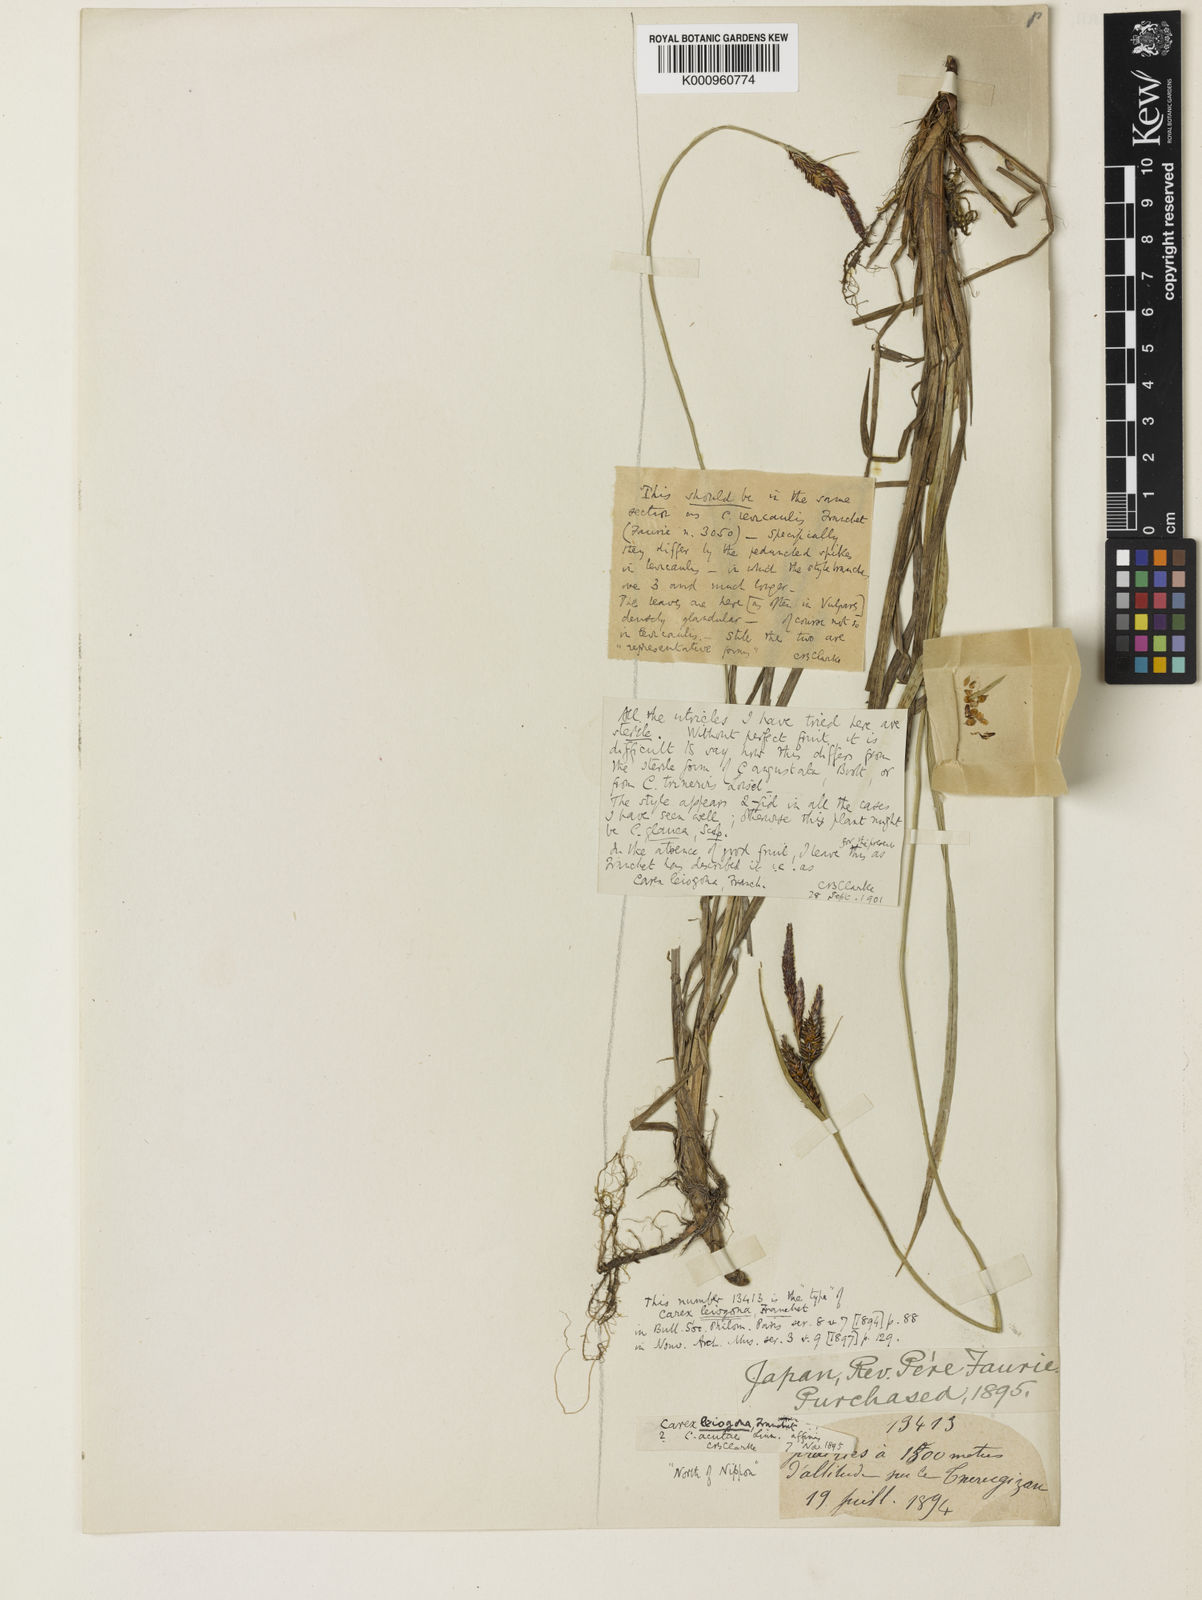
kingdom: Plantae
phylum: Tracheophyta
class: Liliopsida
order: Poales
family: Cyperaceae
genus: Carex
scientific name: Carex middendorffii
